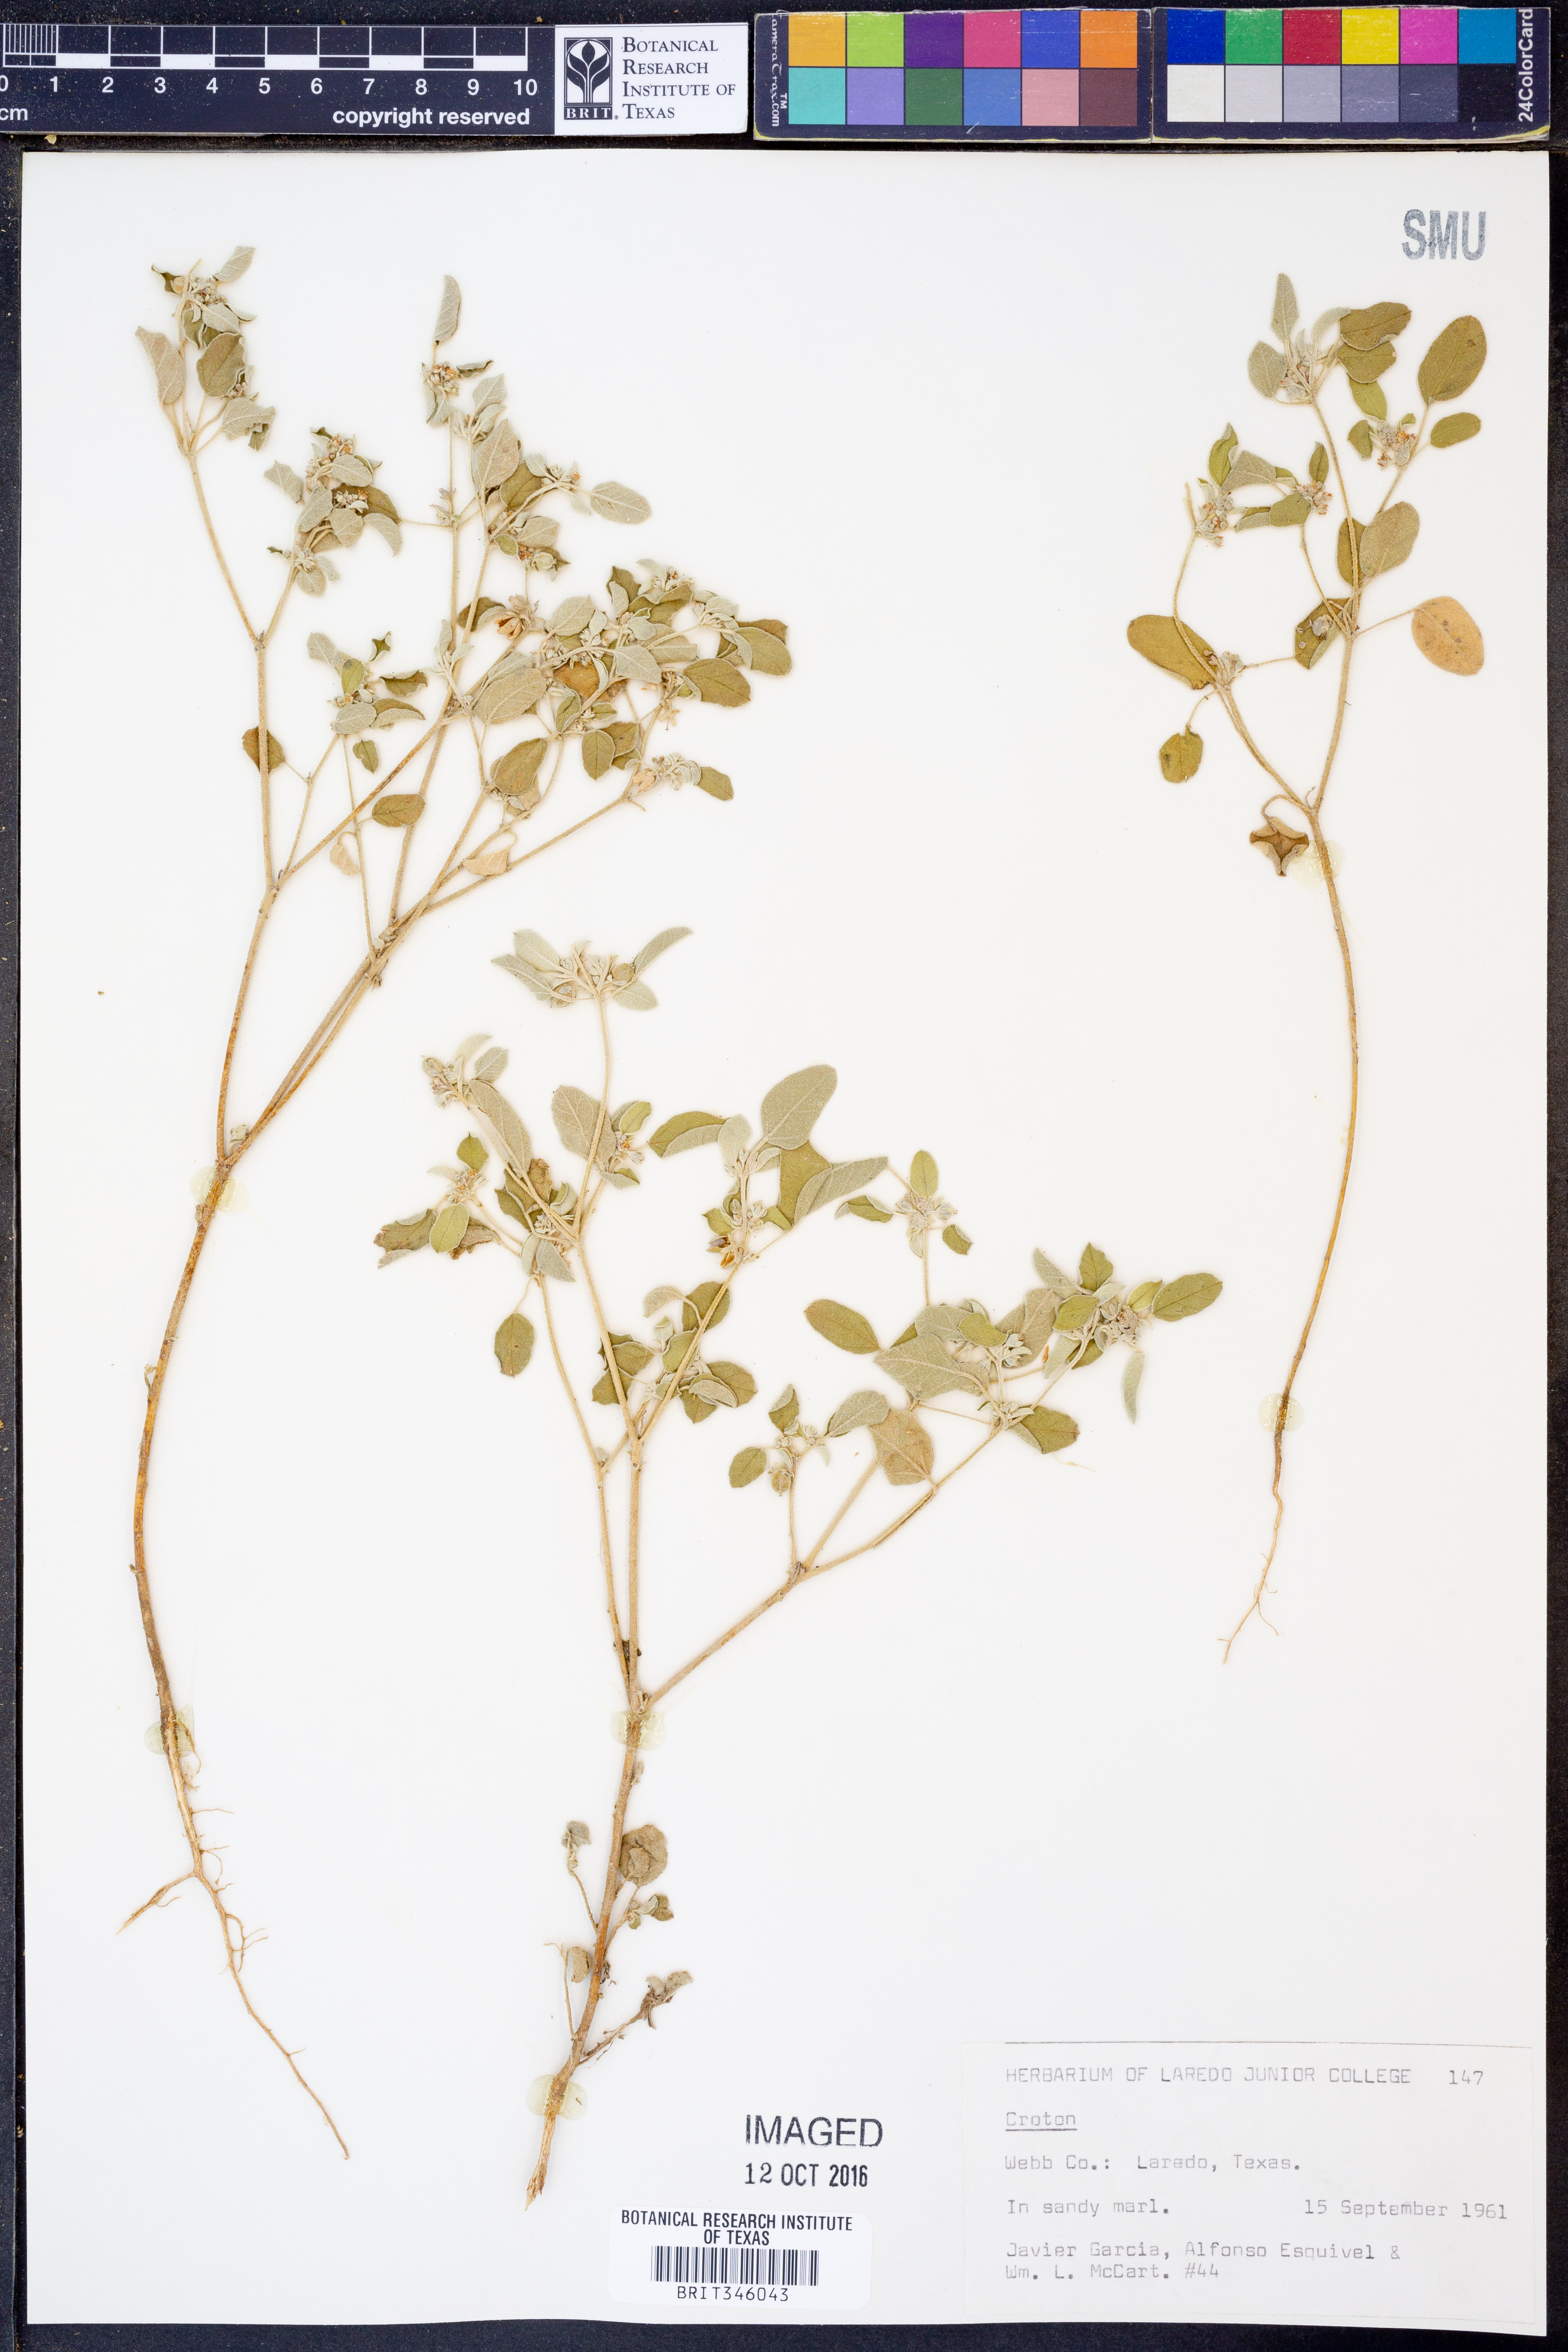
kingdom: Plantae
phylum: Tracheophyta
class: Magnoliopsida
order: Malpighiales
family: Euphorbiaceae
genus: Croton
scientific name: Croton
